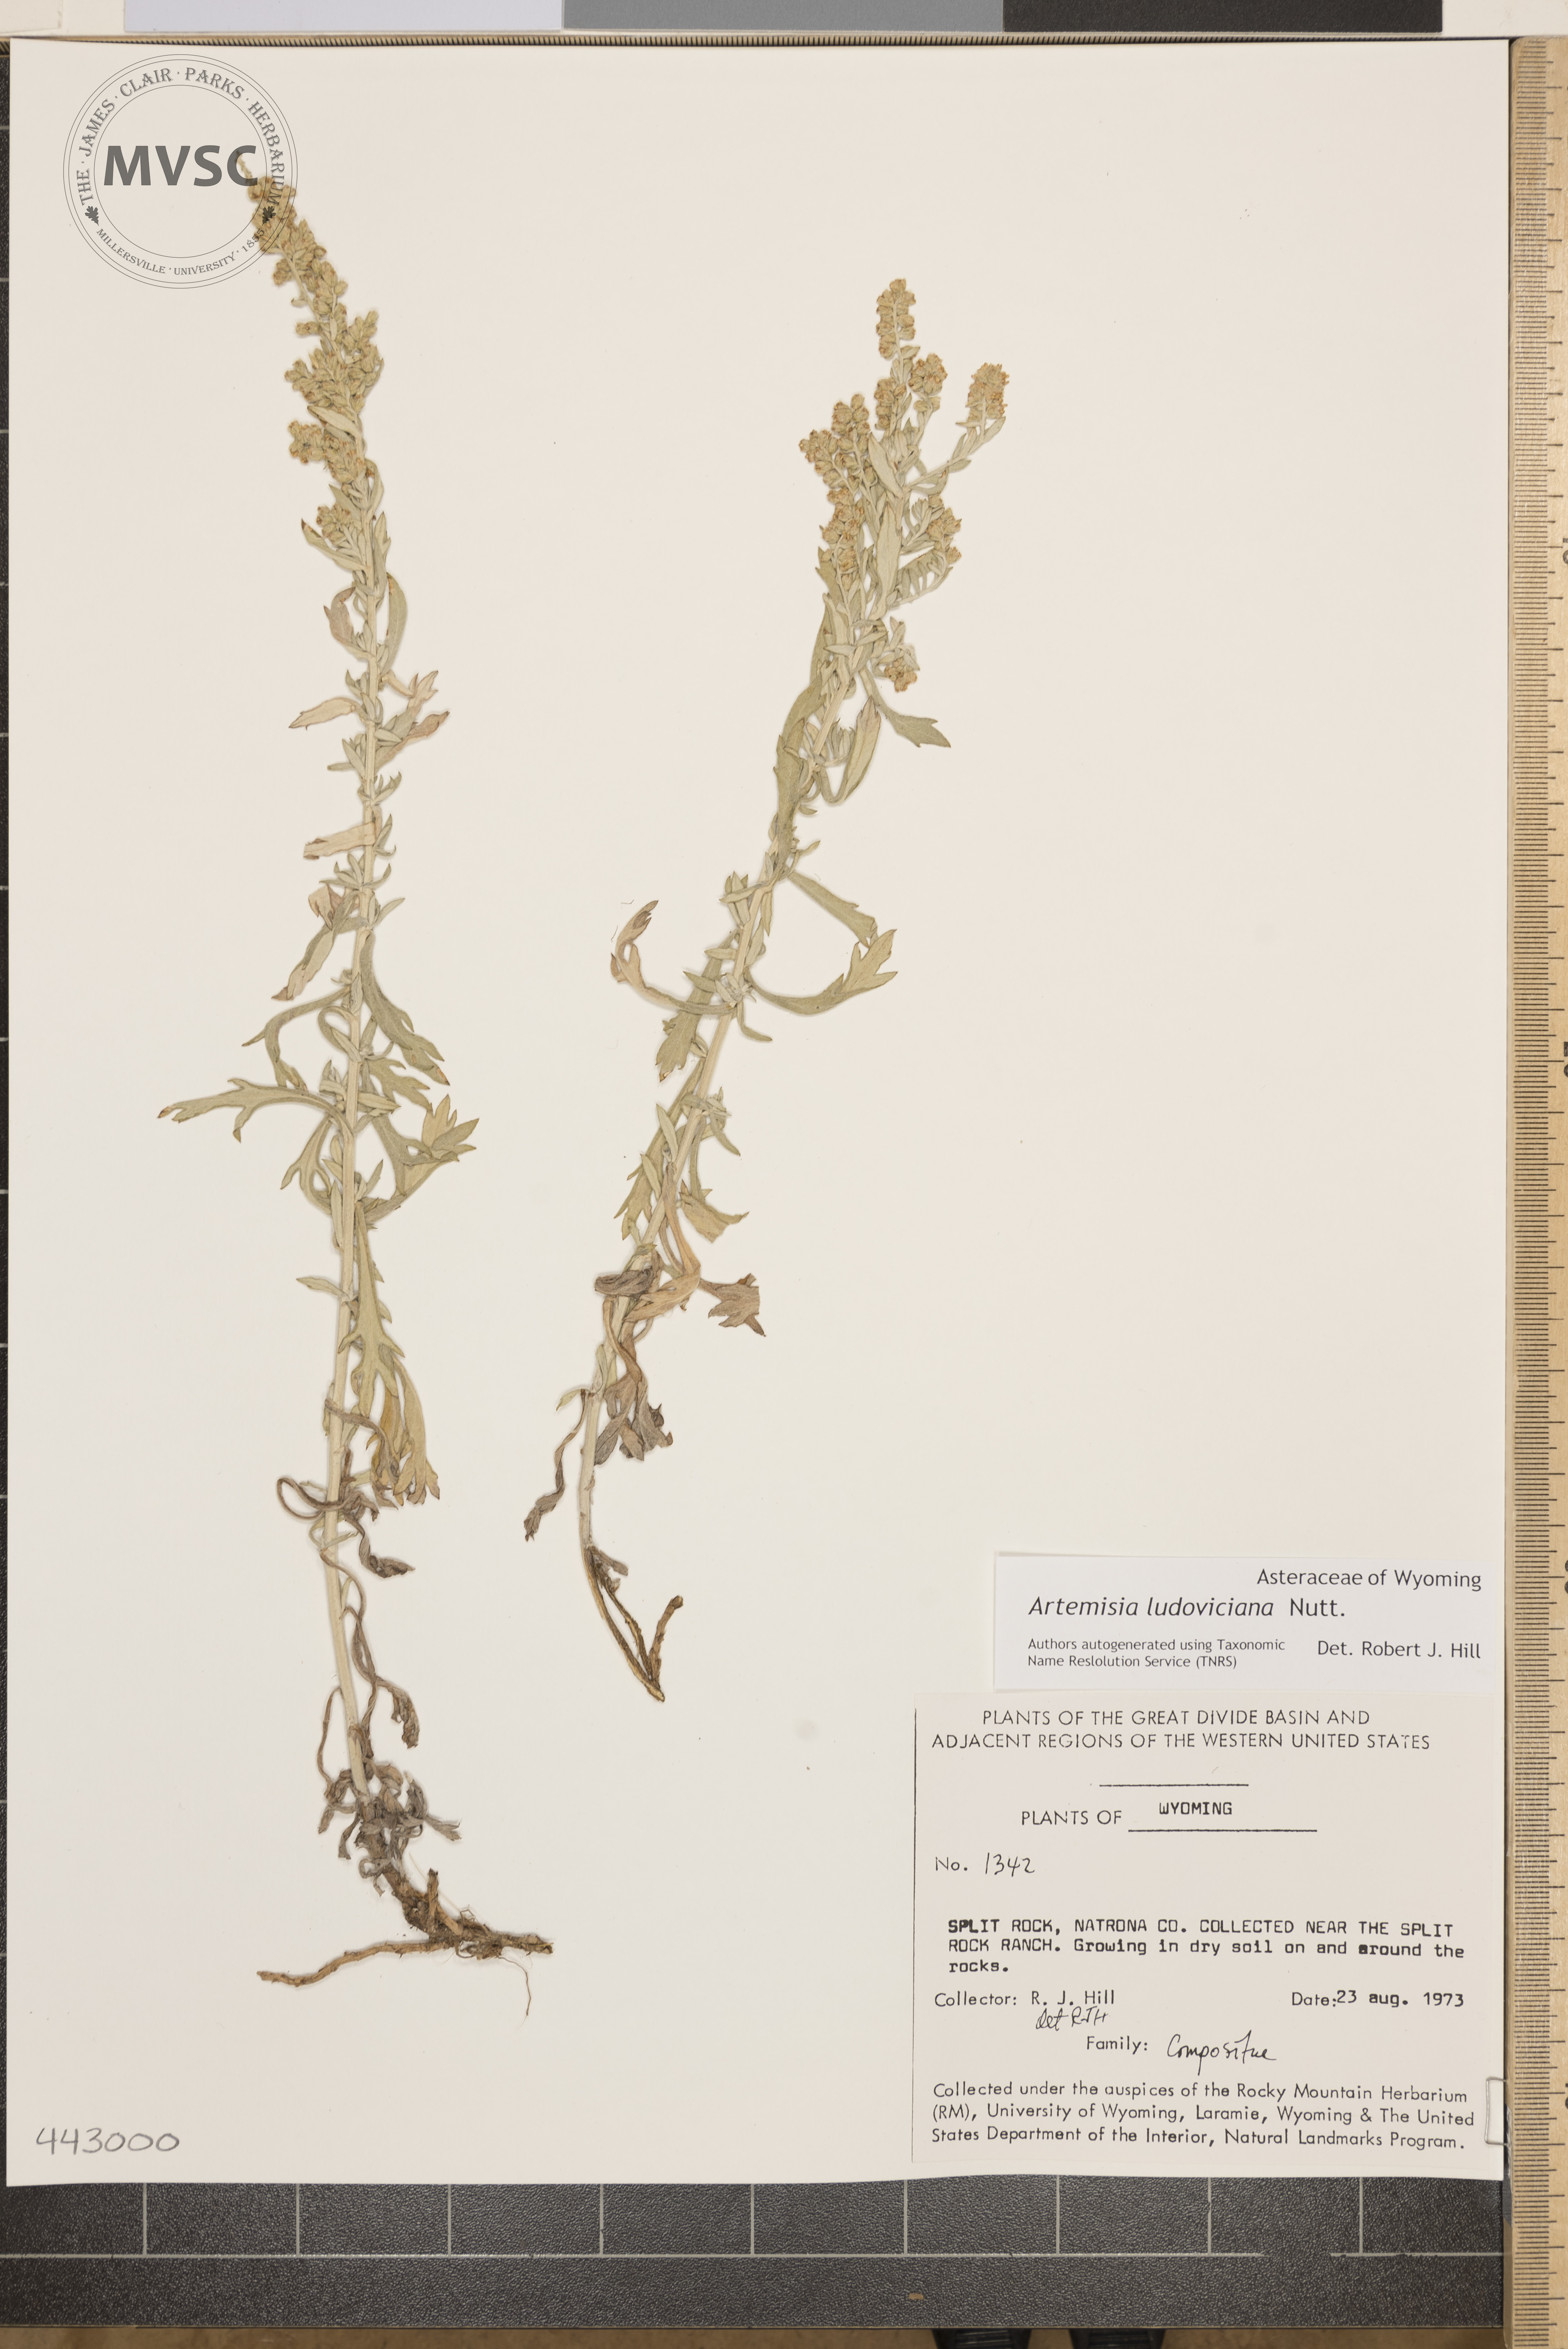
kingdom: Plantae
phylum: Tracheophyta
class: Magnoliopsida
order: Asterales
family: Asteraceae
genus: Artemisia
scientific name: Artemisia ludoviciana
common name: Western mugwort
